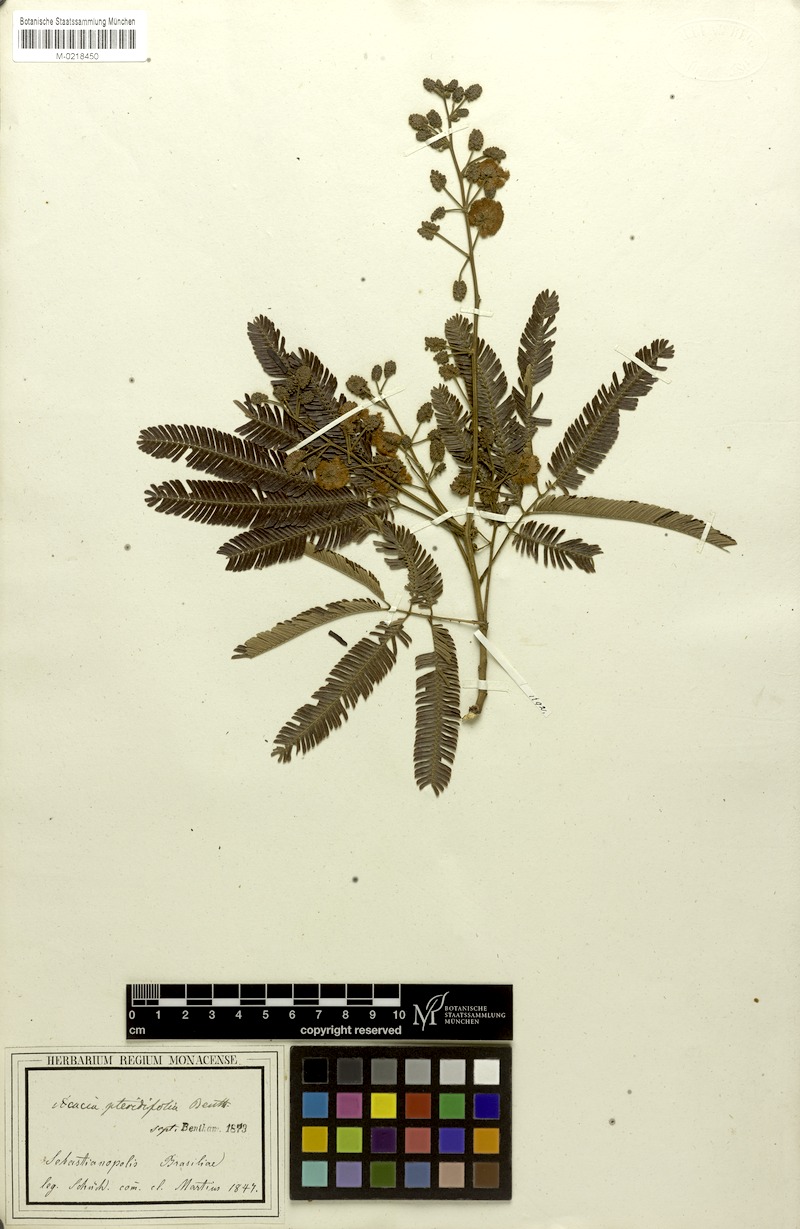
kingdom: Plantae
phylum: Tracheophyta
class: Magnoliopsida
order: Fabales
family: Fabaceae
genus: Senegalia
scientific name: Senegalia pteridifolia
